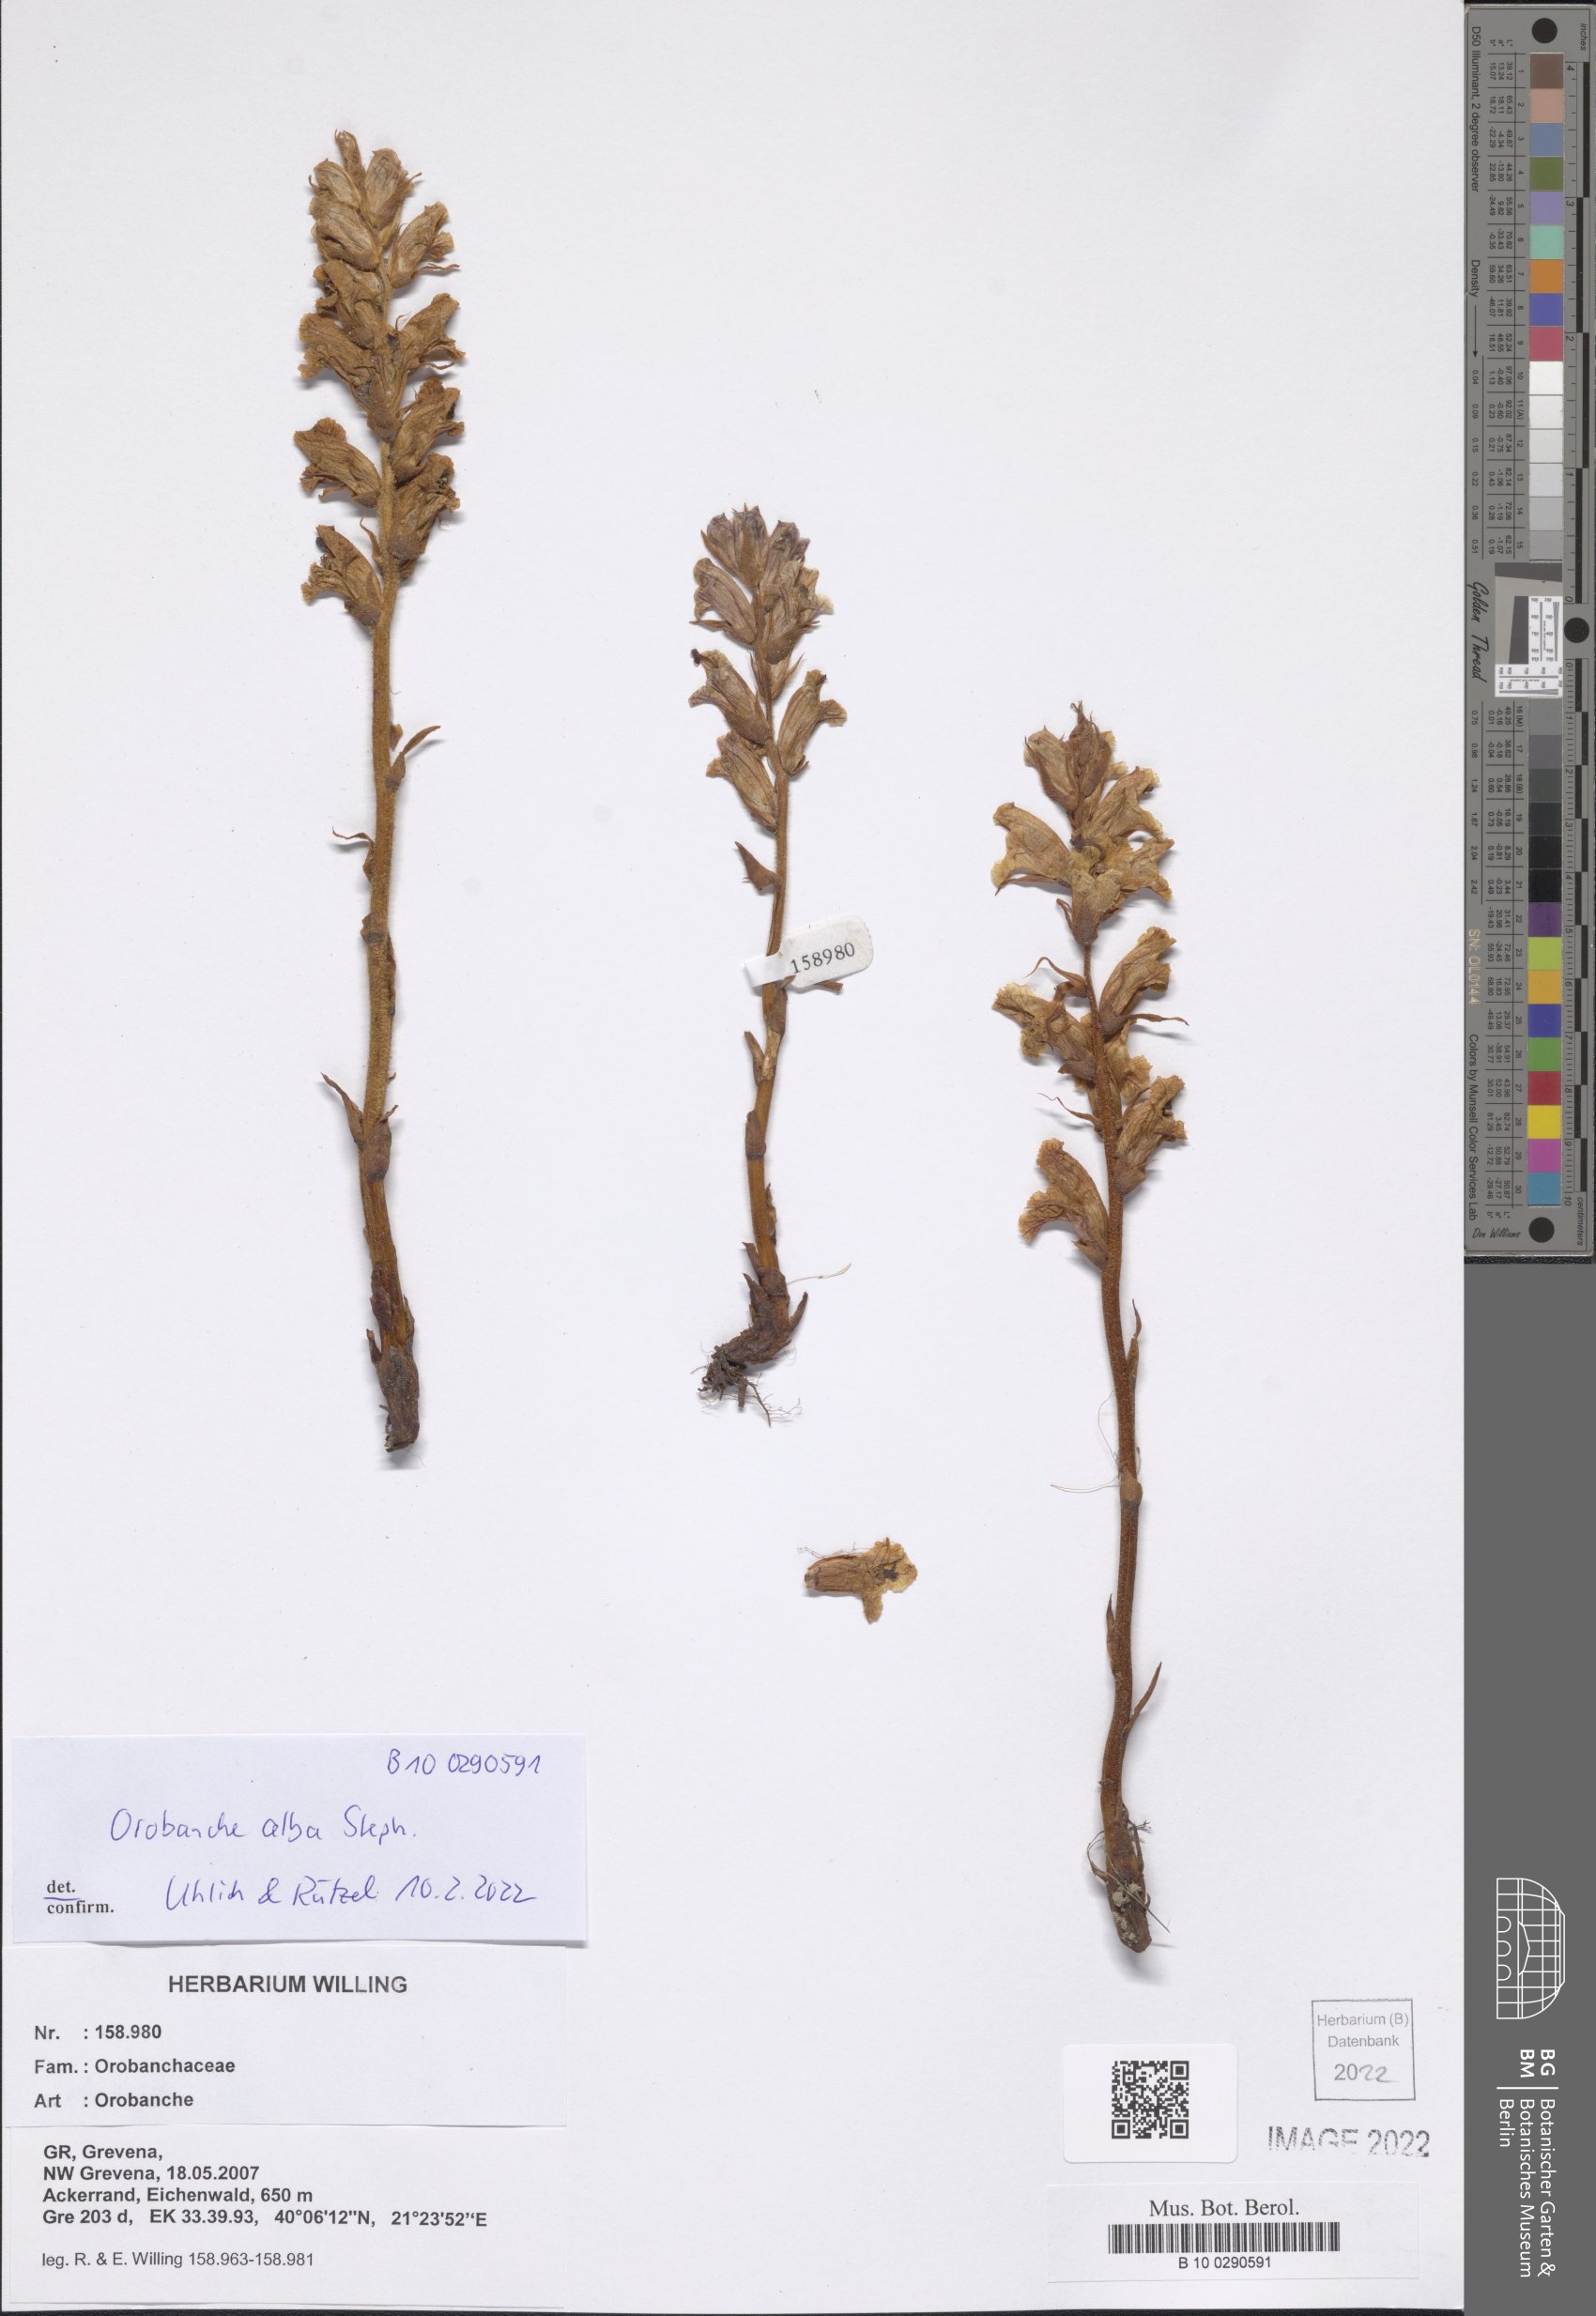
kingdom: Plantae
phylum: Tracheophyta
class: Magnoliopsida
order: Lamiales
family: Orobanchaceae
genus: Orobanche
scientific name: Orobanche alba
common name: Thyme broomrape
